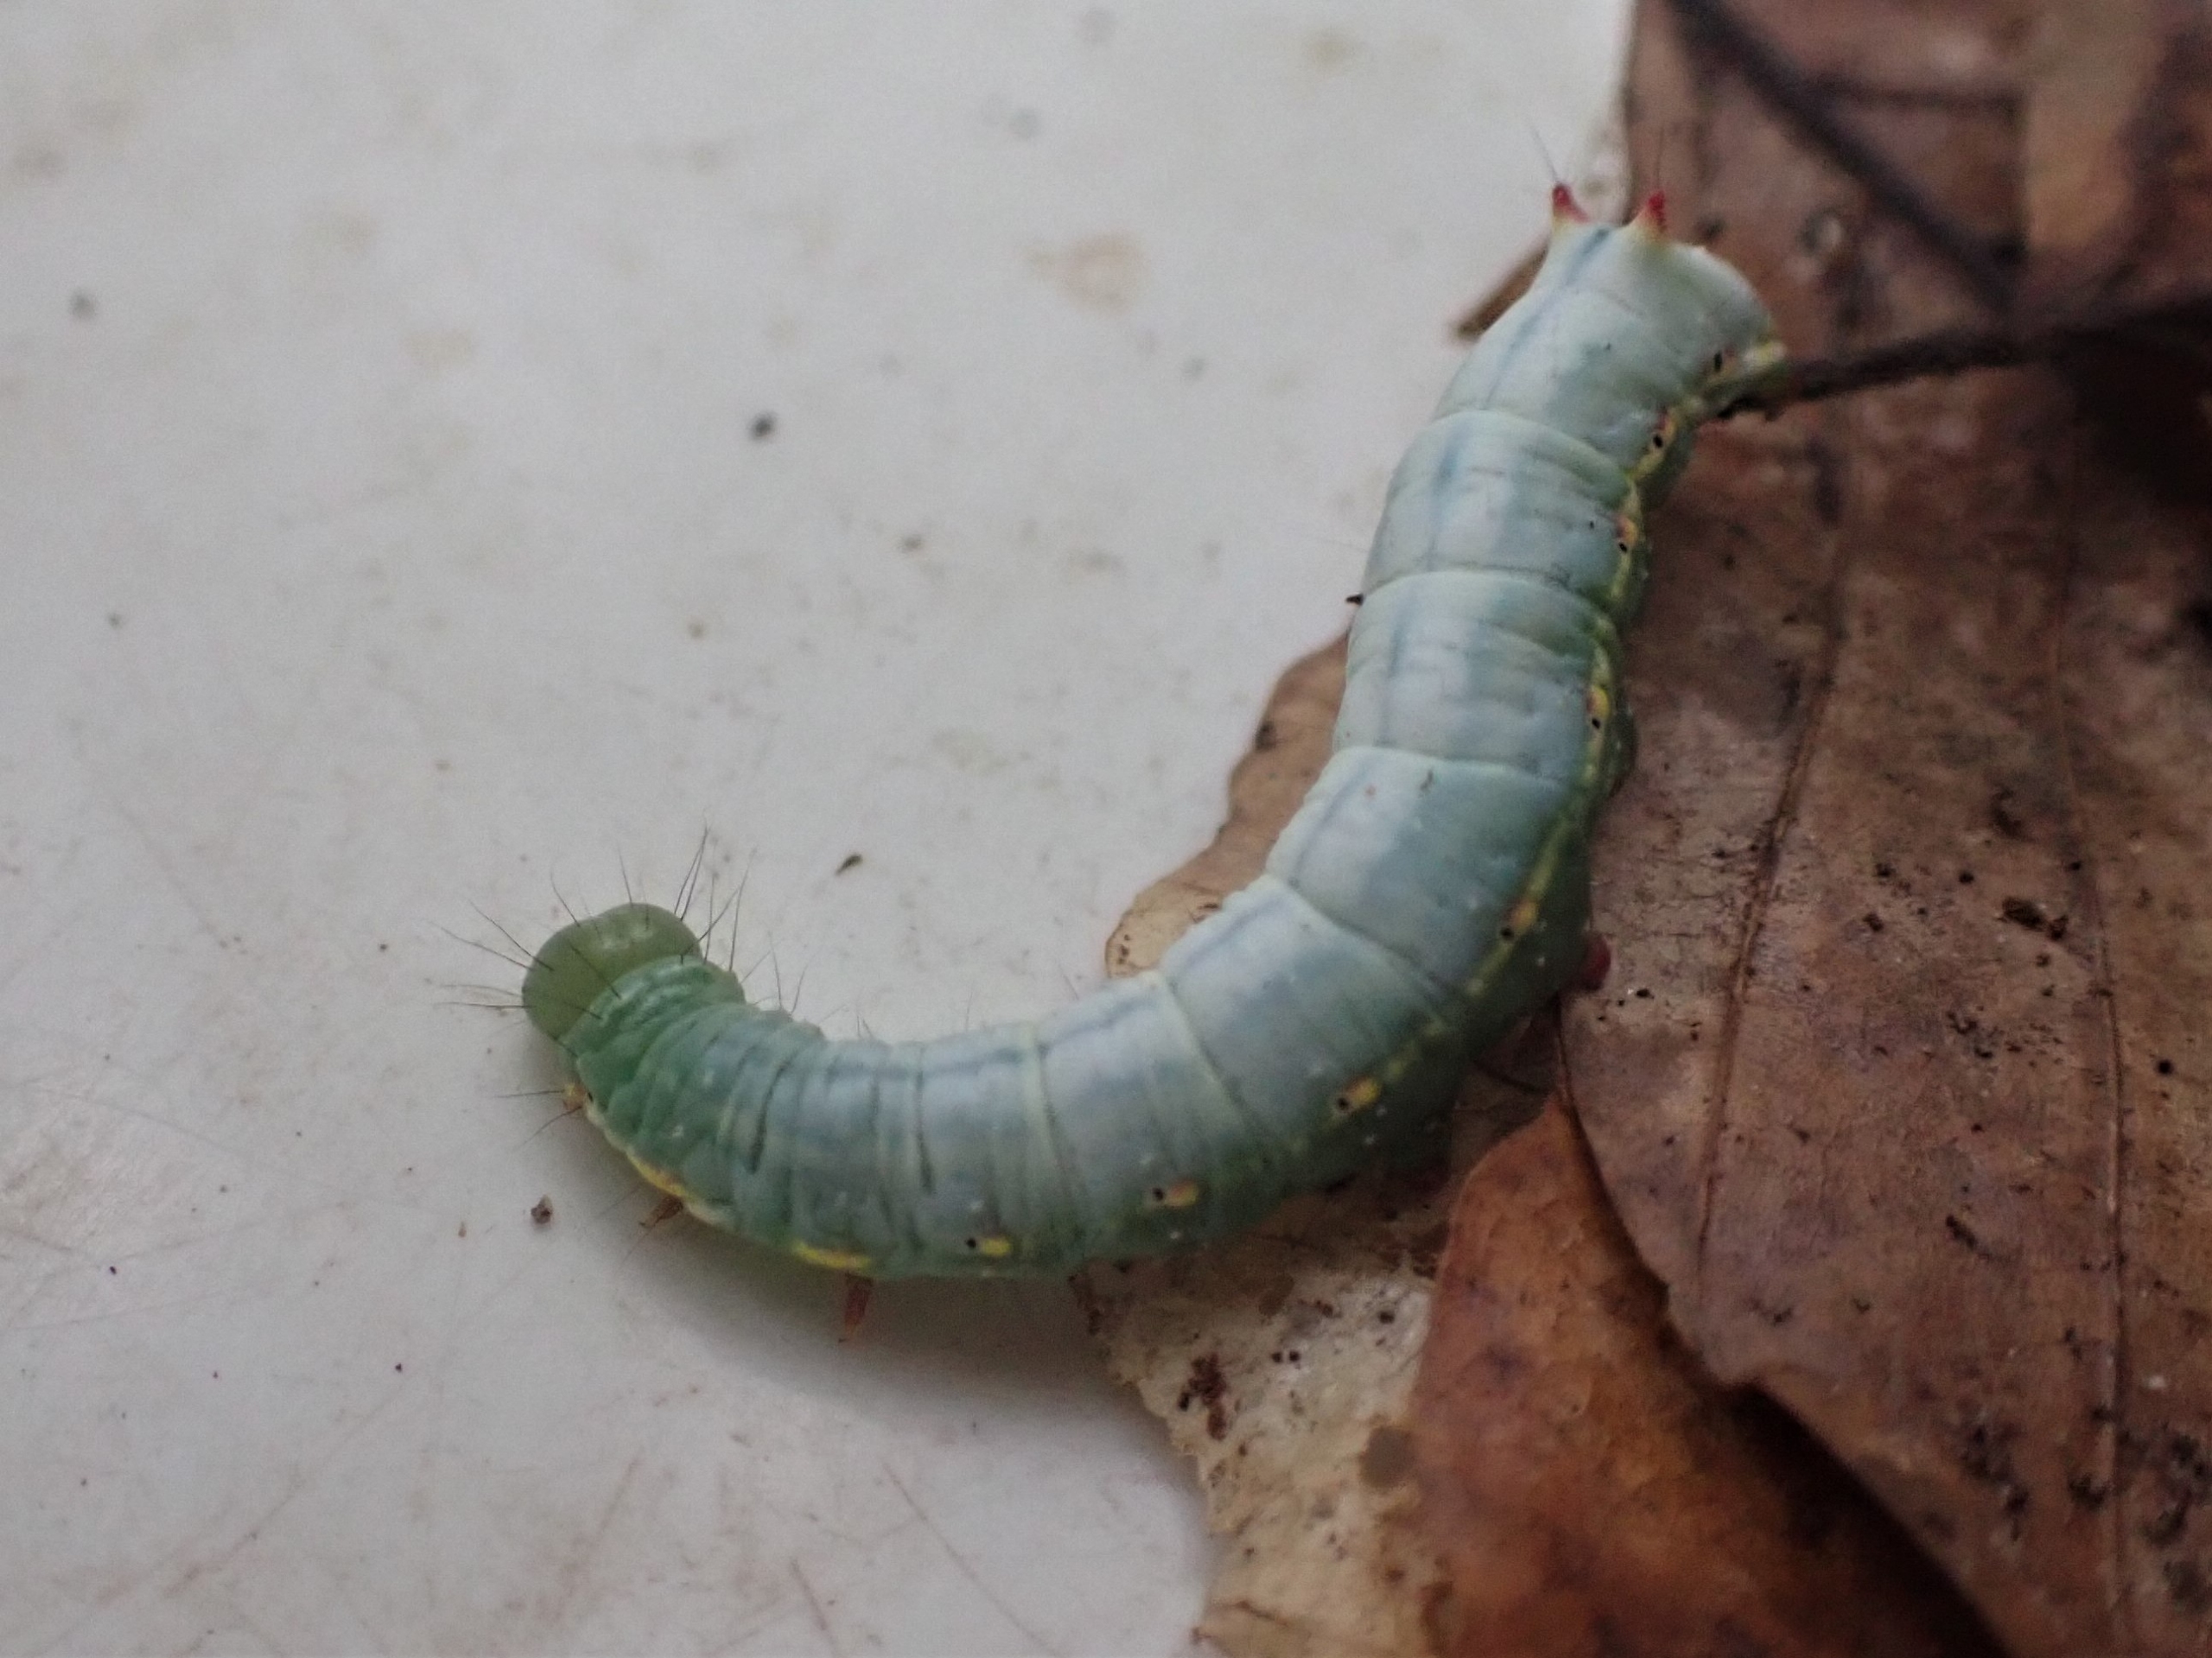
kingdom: Animalia
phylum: Arthropoda
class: Insecta
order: Lepidoptera
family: Notodontidae
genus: Ptilodon
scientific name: Ptilodon capucina
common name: Kamelspinder
